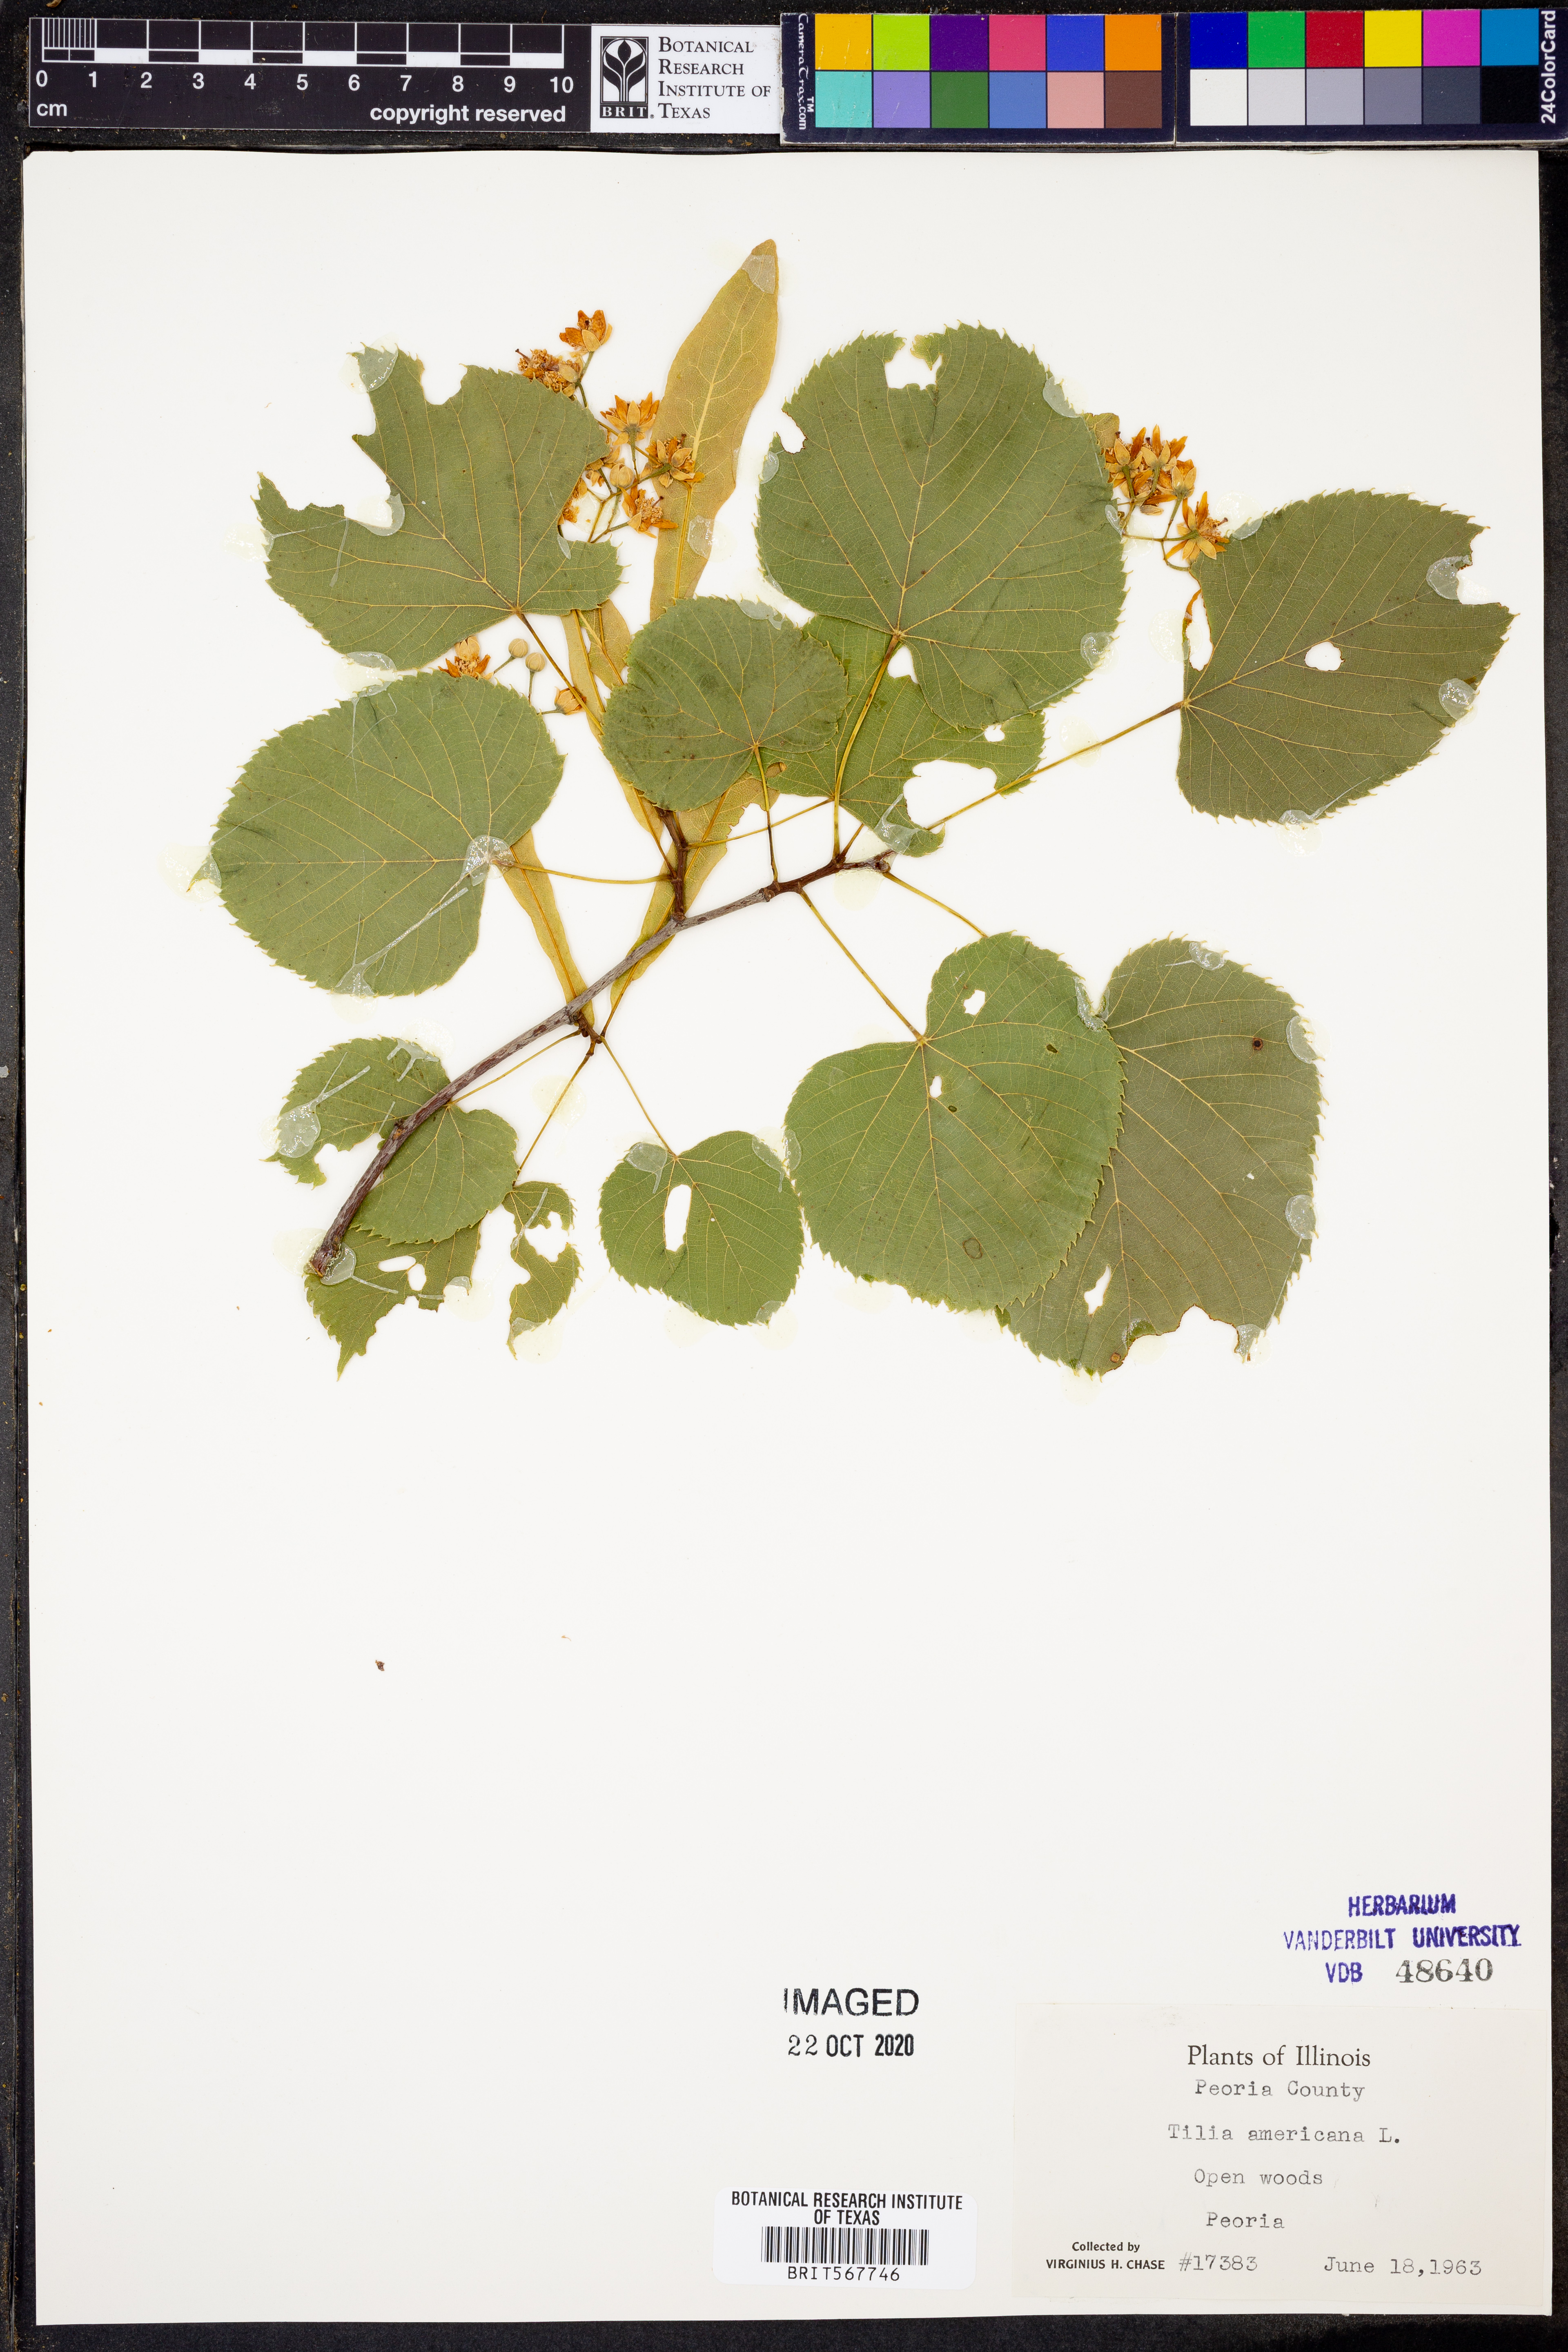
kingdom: Plantae
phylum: Tracheophyta
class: Magnoliopsida
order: Malvales
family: Malvaceae
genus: Tilia
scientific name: Tilia americana
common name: Basswood
